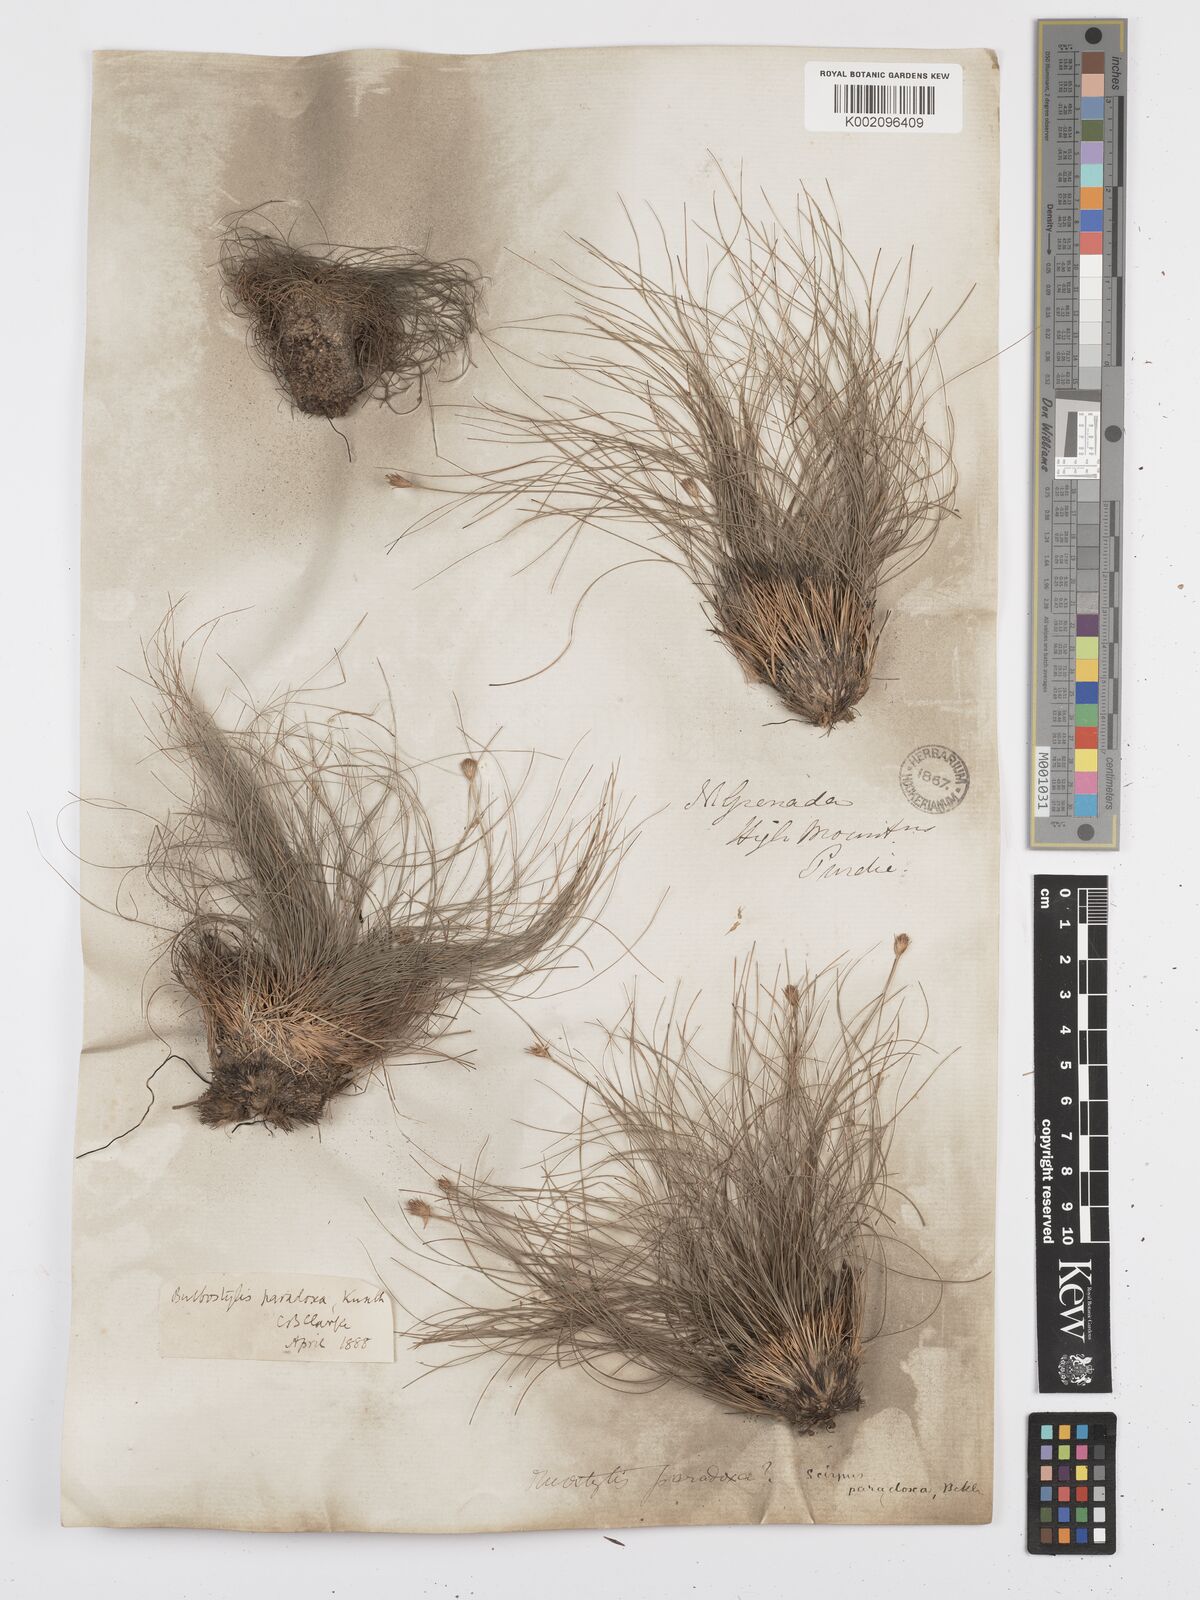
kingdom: Plantae
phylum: Tracheophyta
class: Liliopsida
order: Poales
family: Cyperaceae
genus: Bulbostylis
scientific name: Bulbostylis
